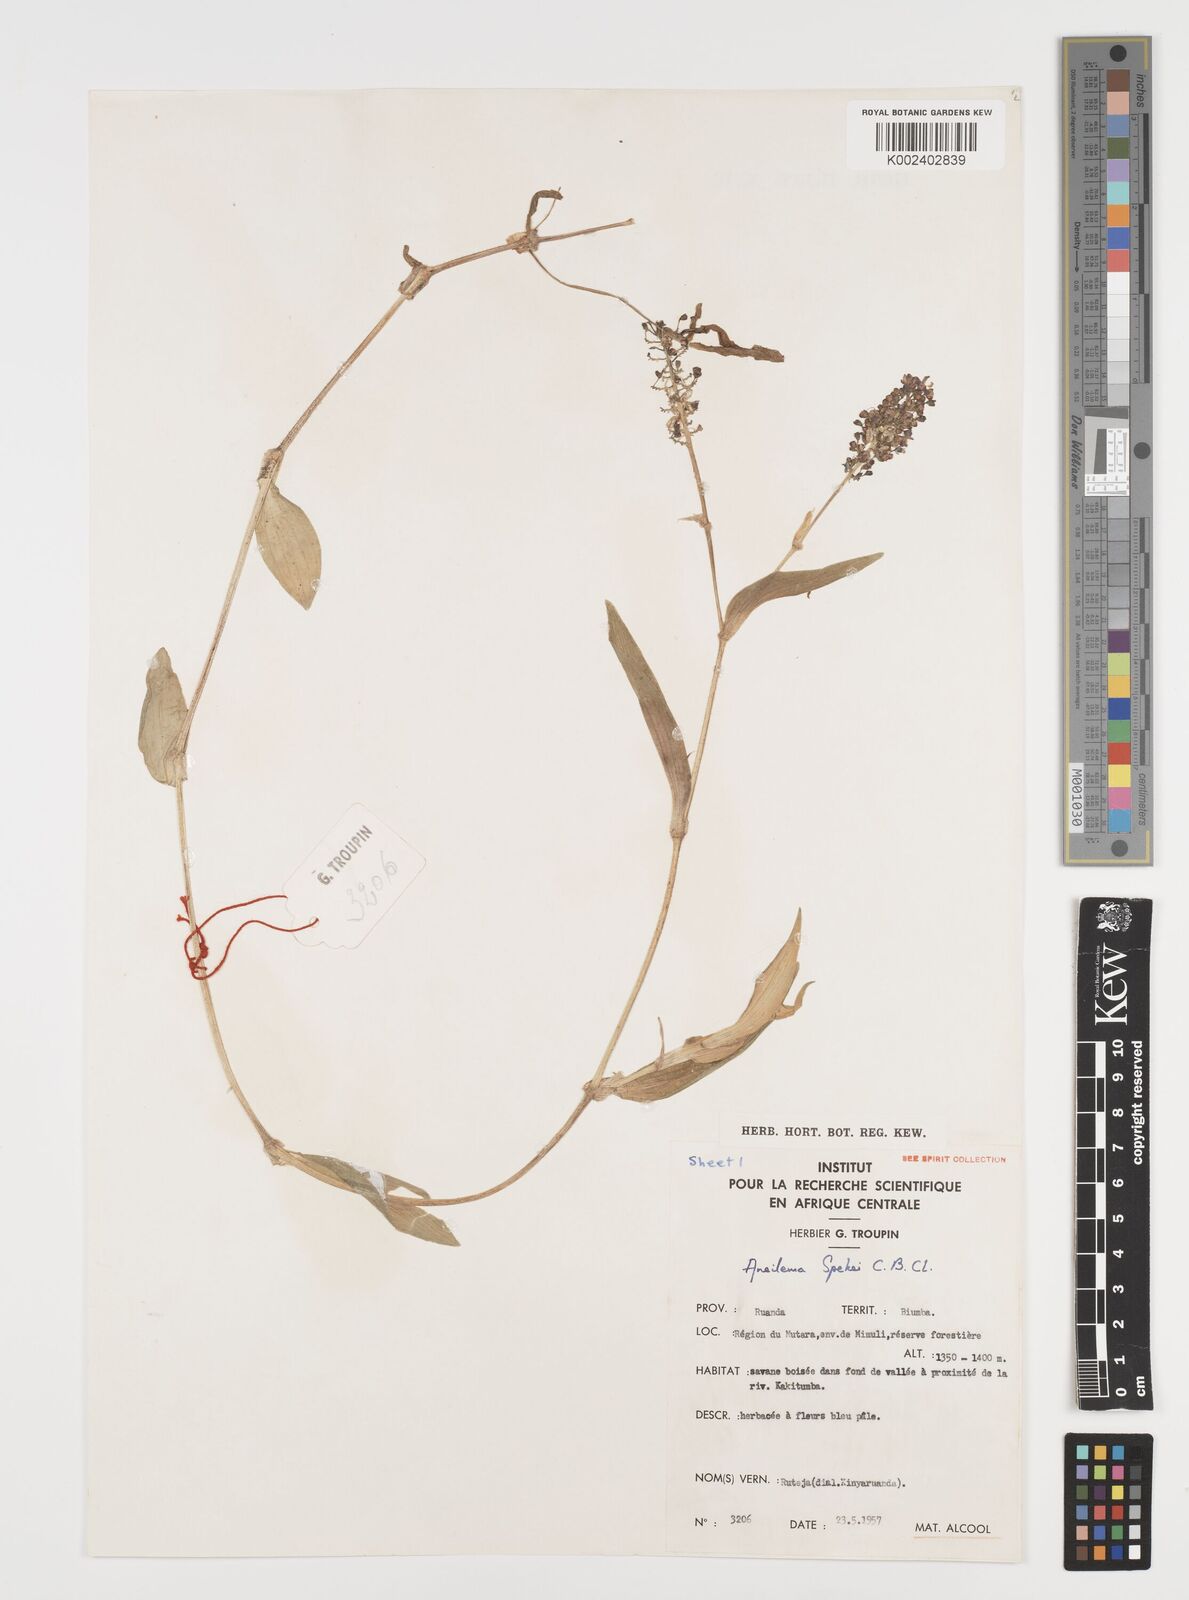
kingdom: Plantae
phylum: Tracheophyta
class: Liliopsida
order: Commelinales
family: Commelinaceae
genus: Aneilema
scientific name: Aneilema spekei
